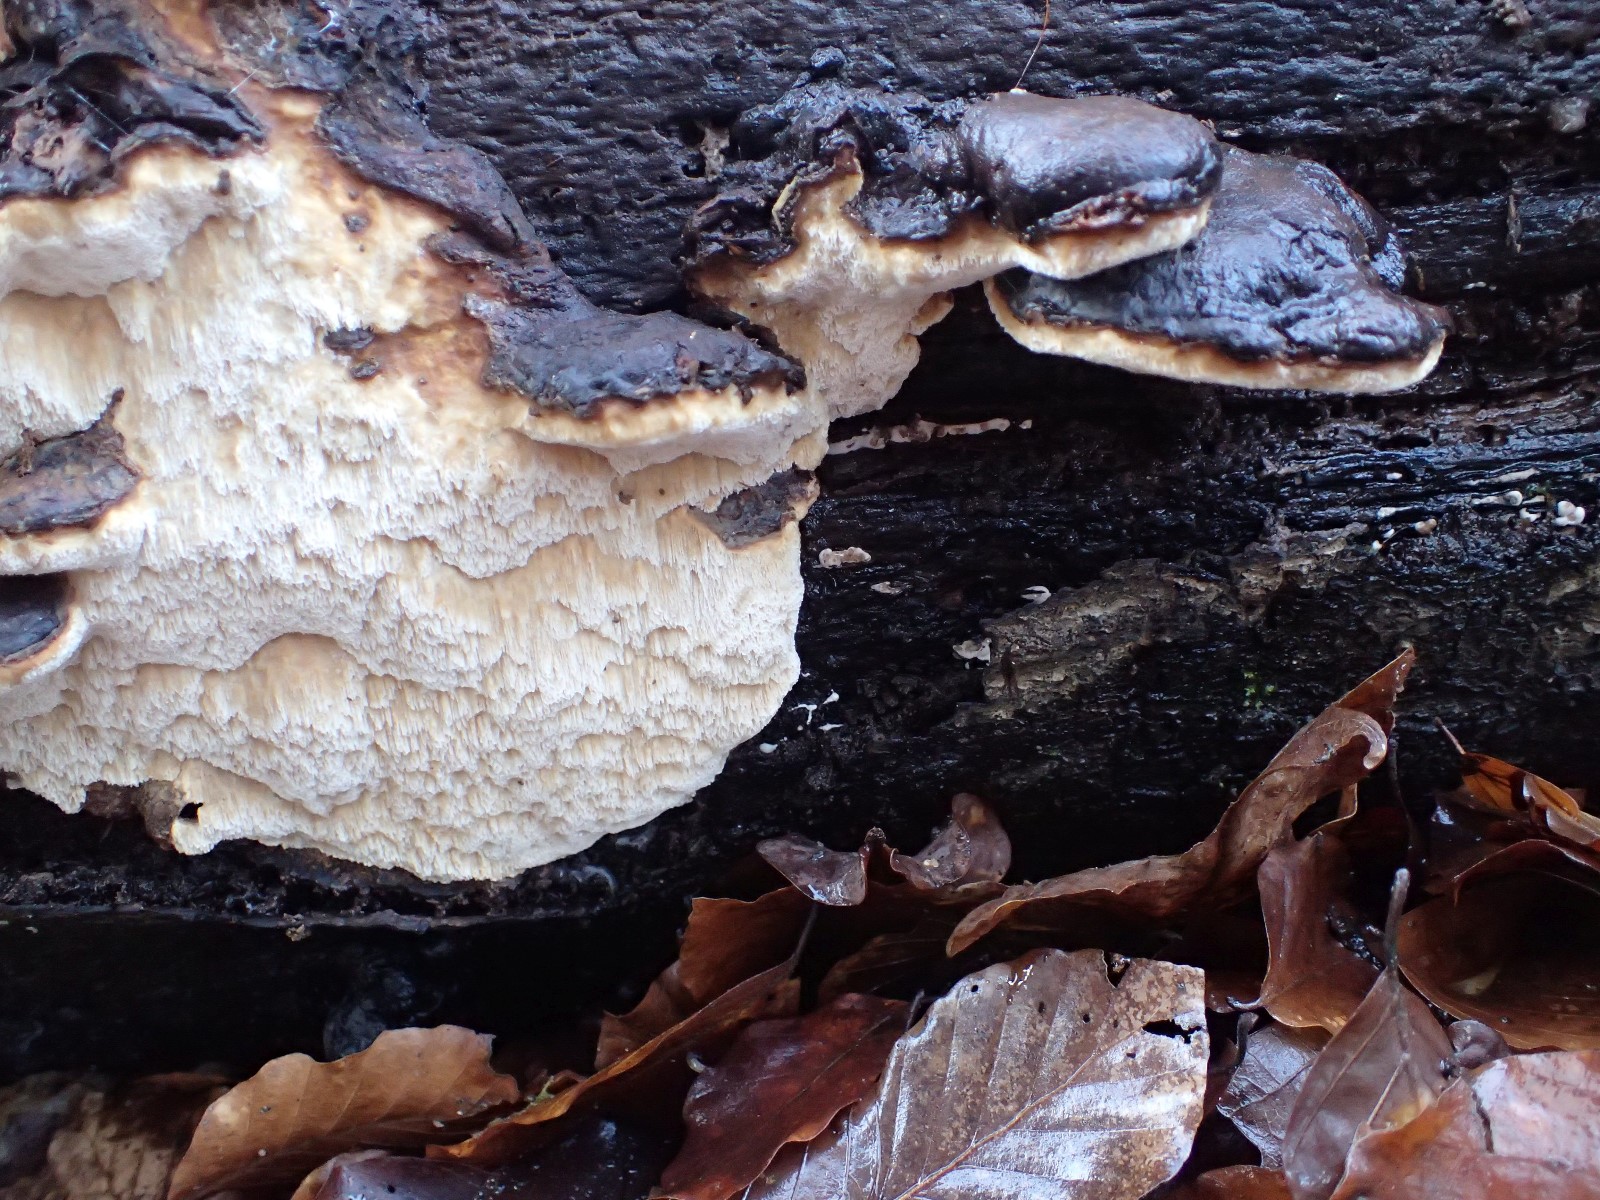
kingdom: Fungi
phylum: Basidiomycota
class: Agaricomycetes
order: Polyporales
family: Ischnodermataceae
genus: Ischnoderma
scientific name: Ischnoderma resinosum
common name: løv-tjæreporesvamp
